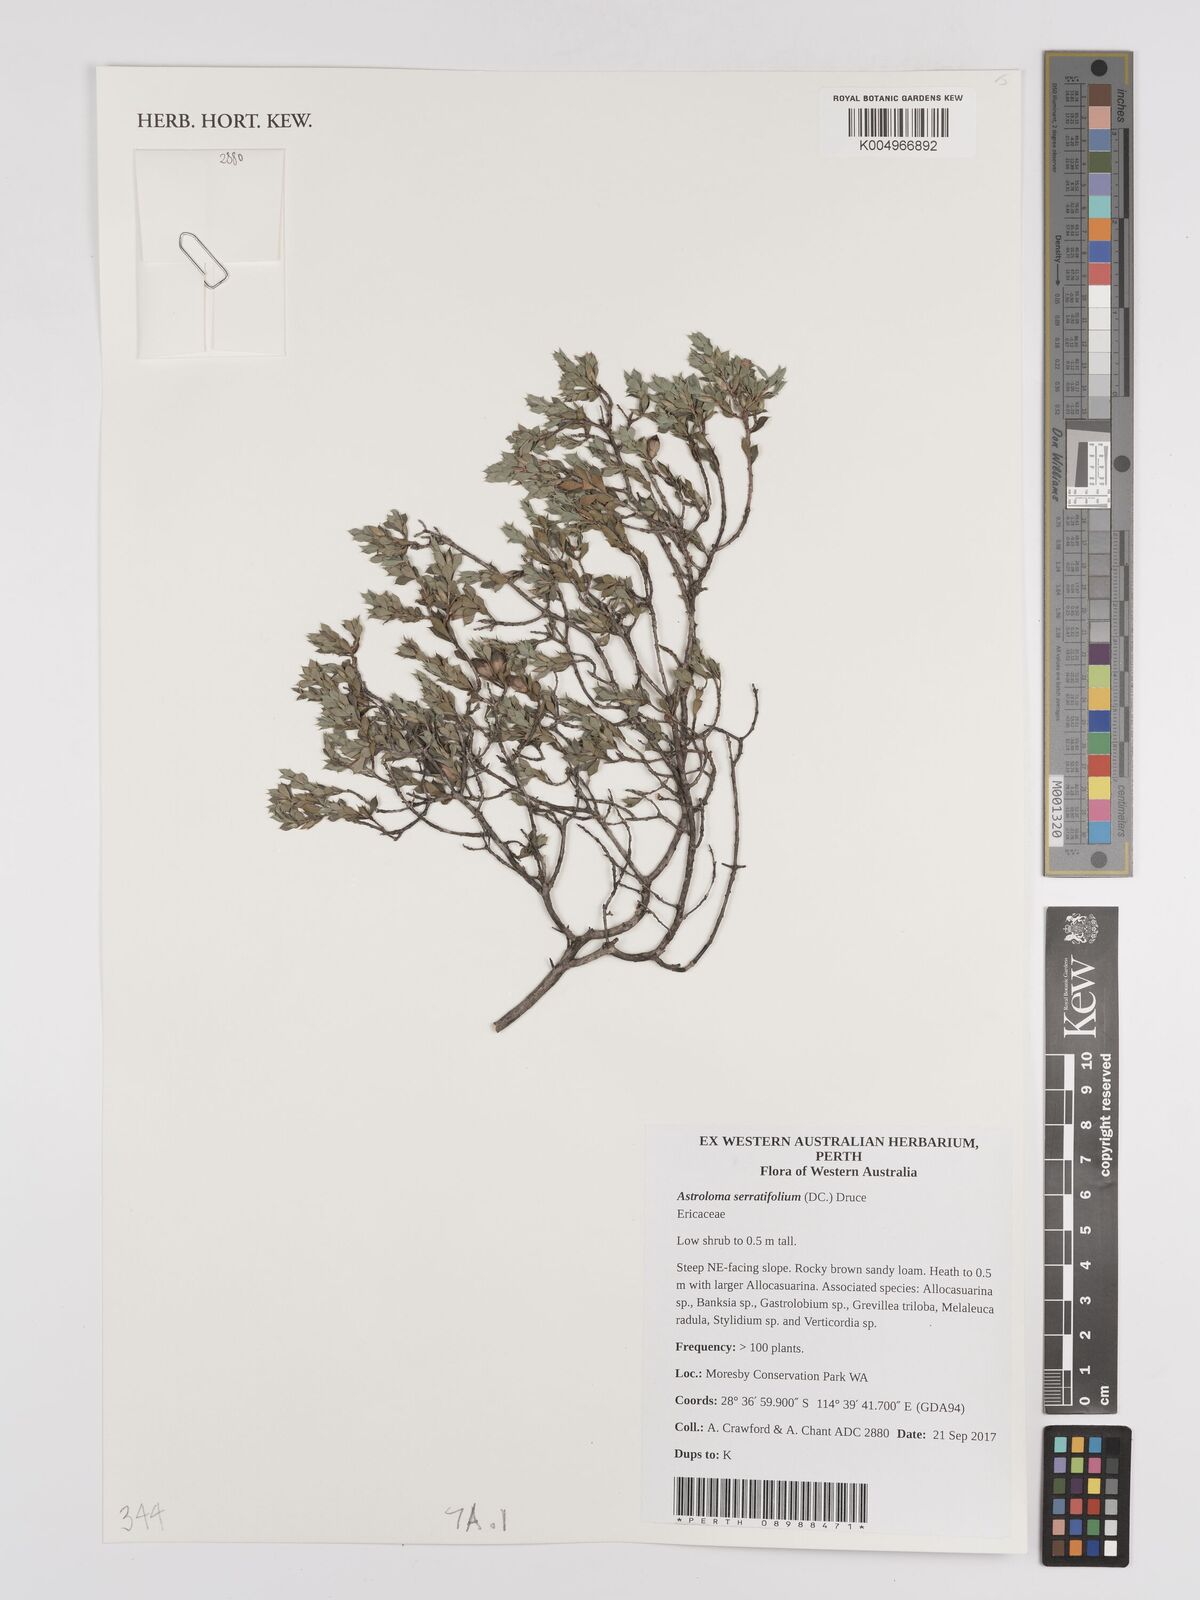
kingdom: Plantae
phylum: Tracheophyta
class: Magnoliopsida
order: Ericales
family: Ericaceae
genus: Styphelia
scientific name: Styphelia serratifolia
